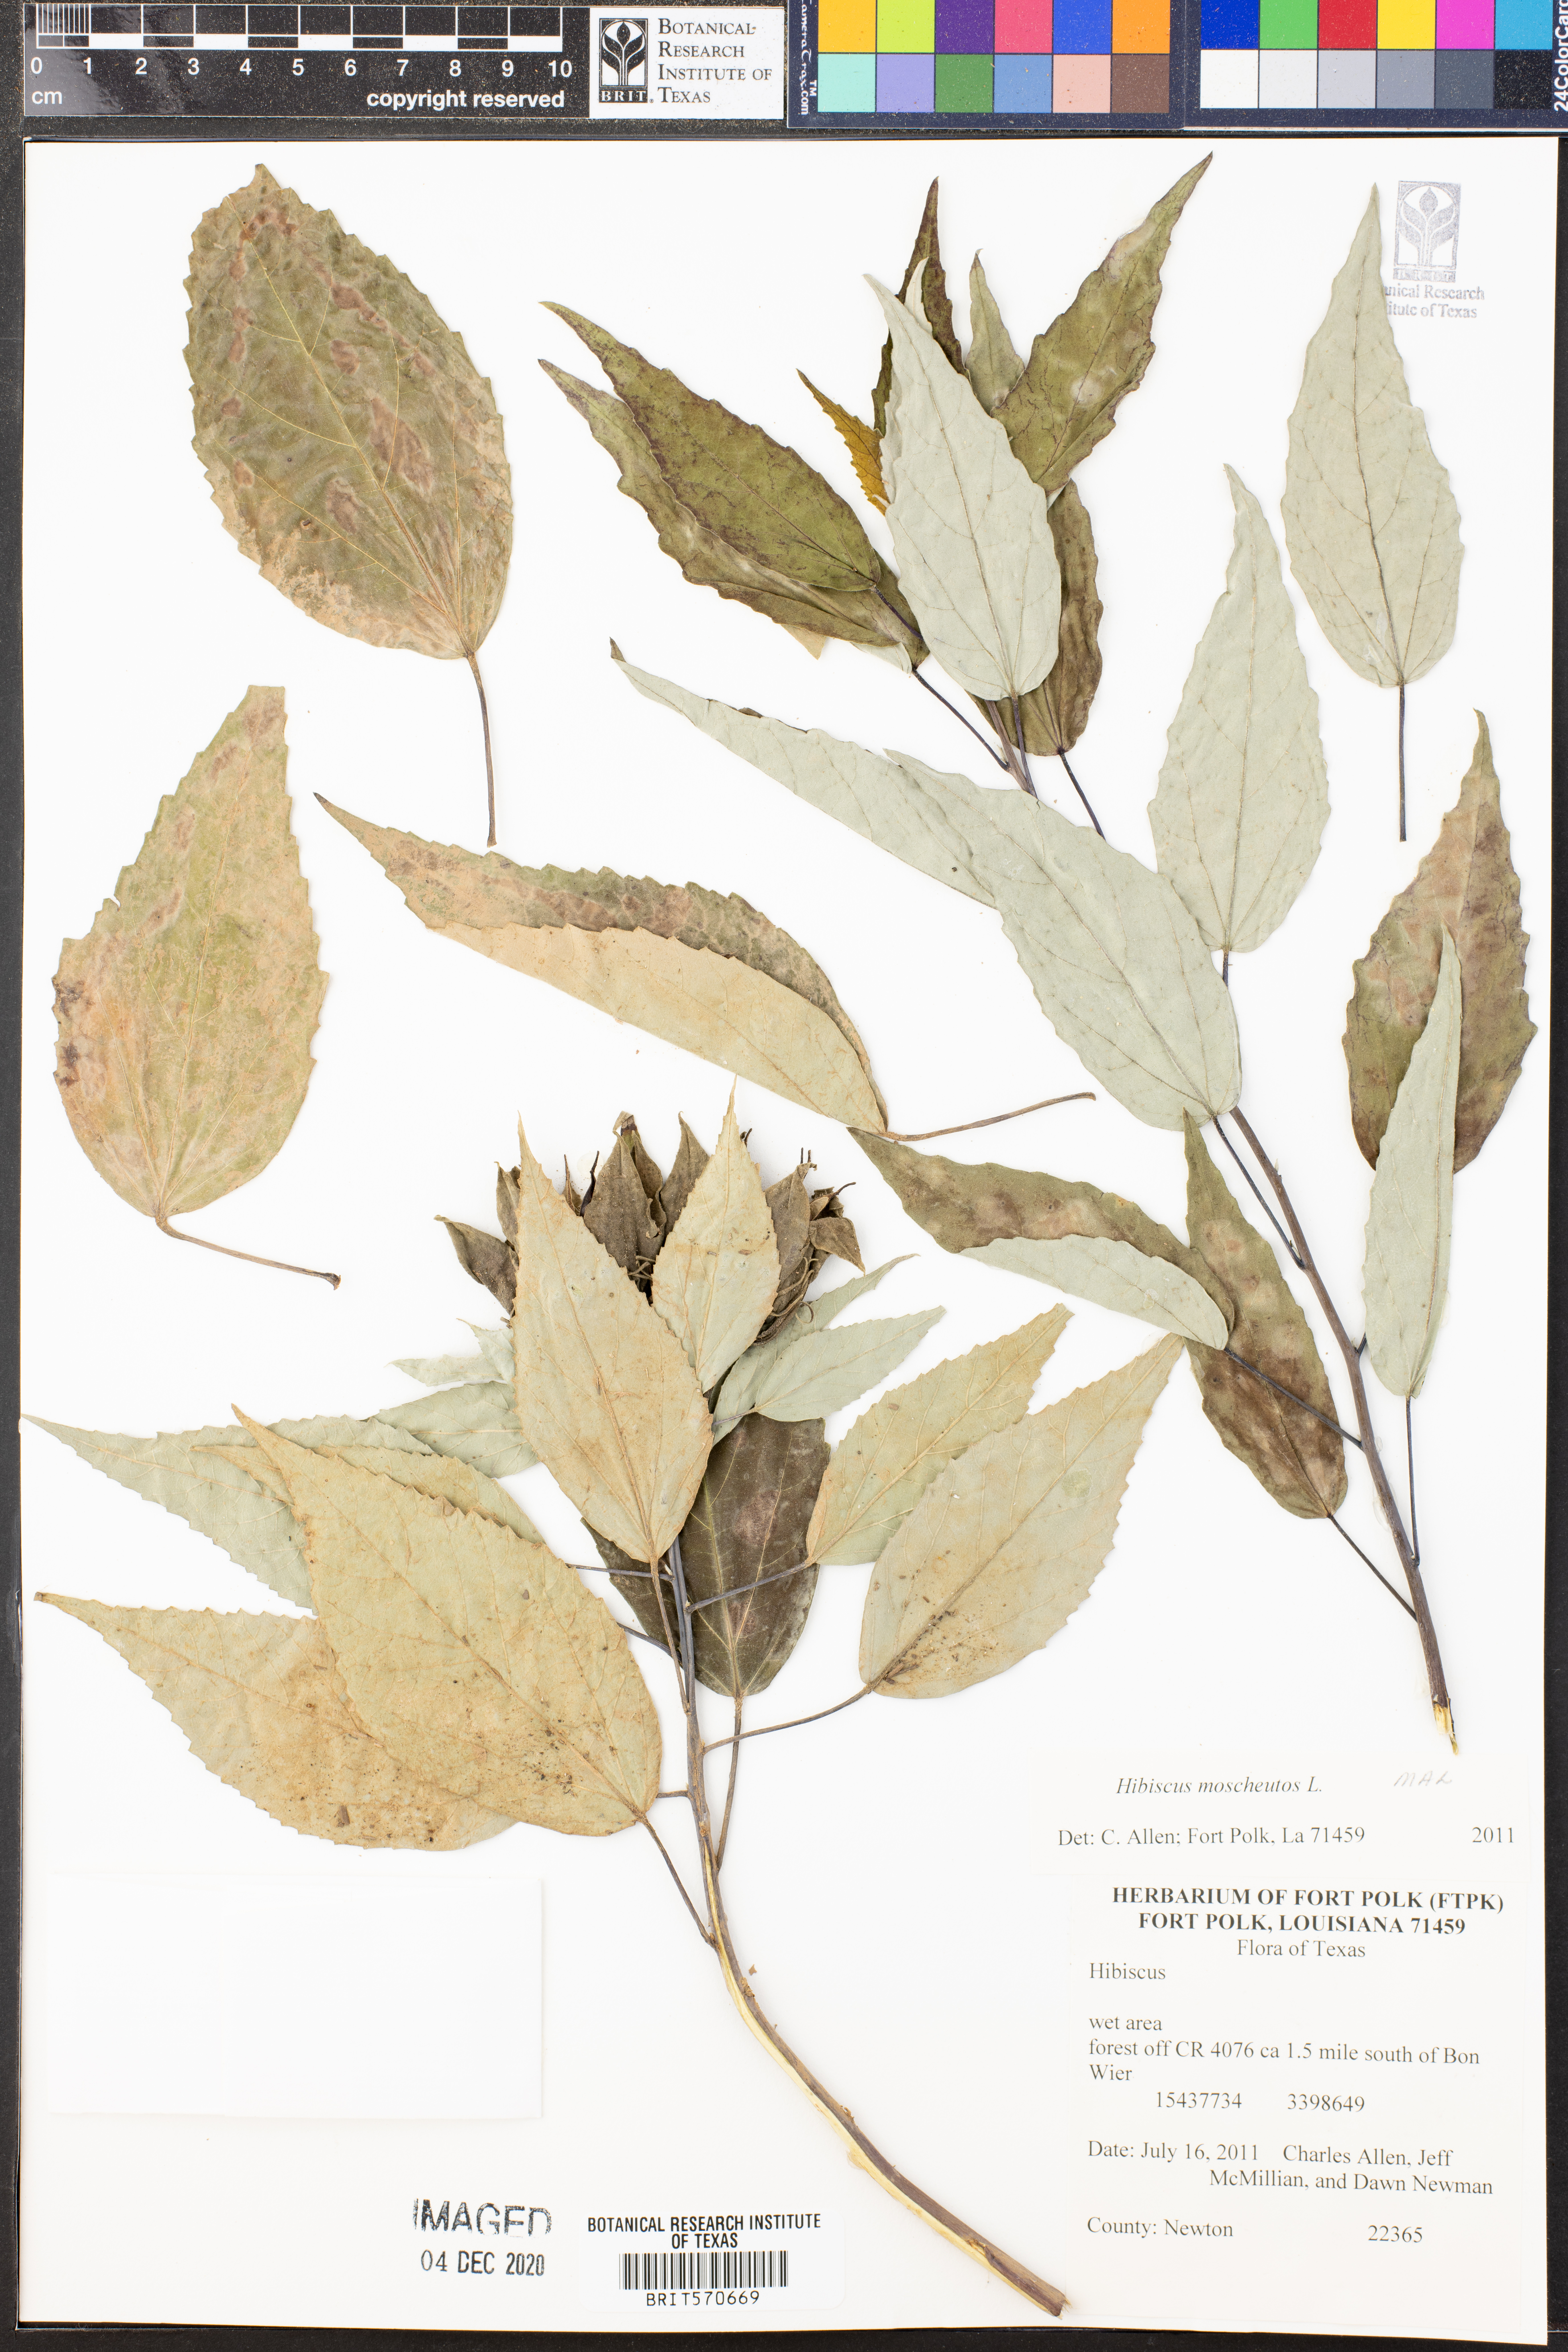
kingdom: Plantae
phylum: Tracheophyta
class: Magnoliopsida
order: Malvales
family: Malvaceae
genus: Hibiscus
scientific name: Hibiscus moscheutos
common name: Common rose-mallow
